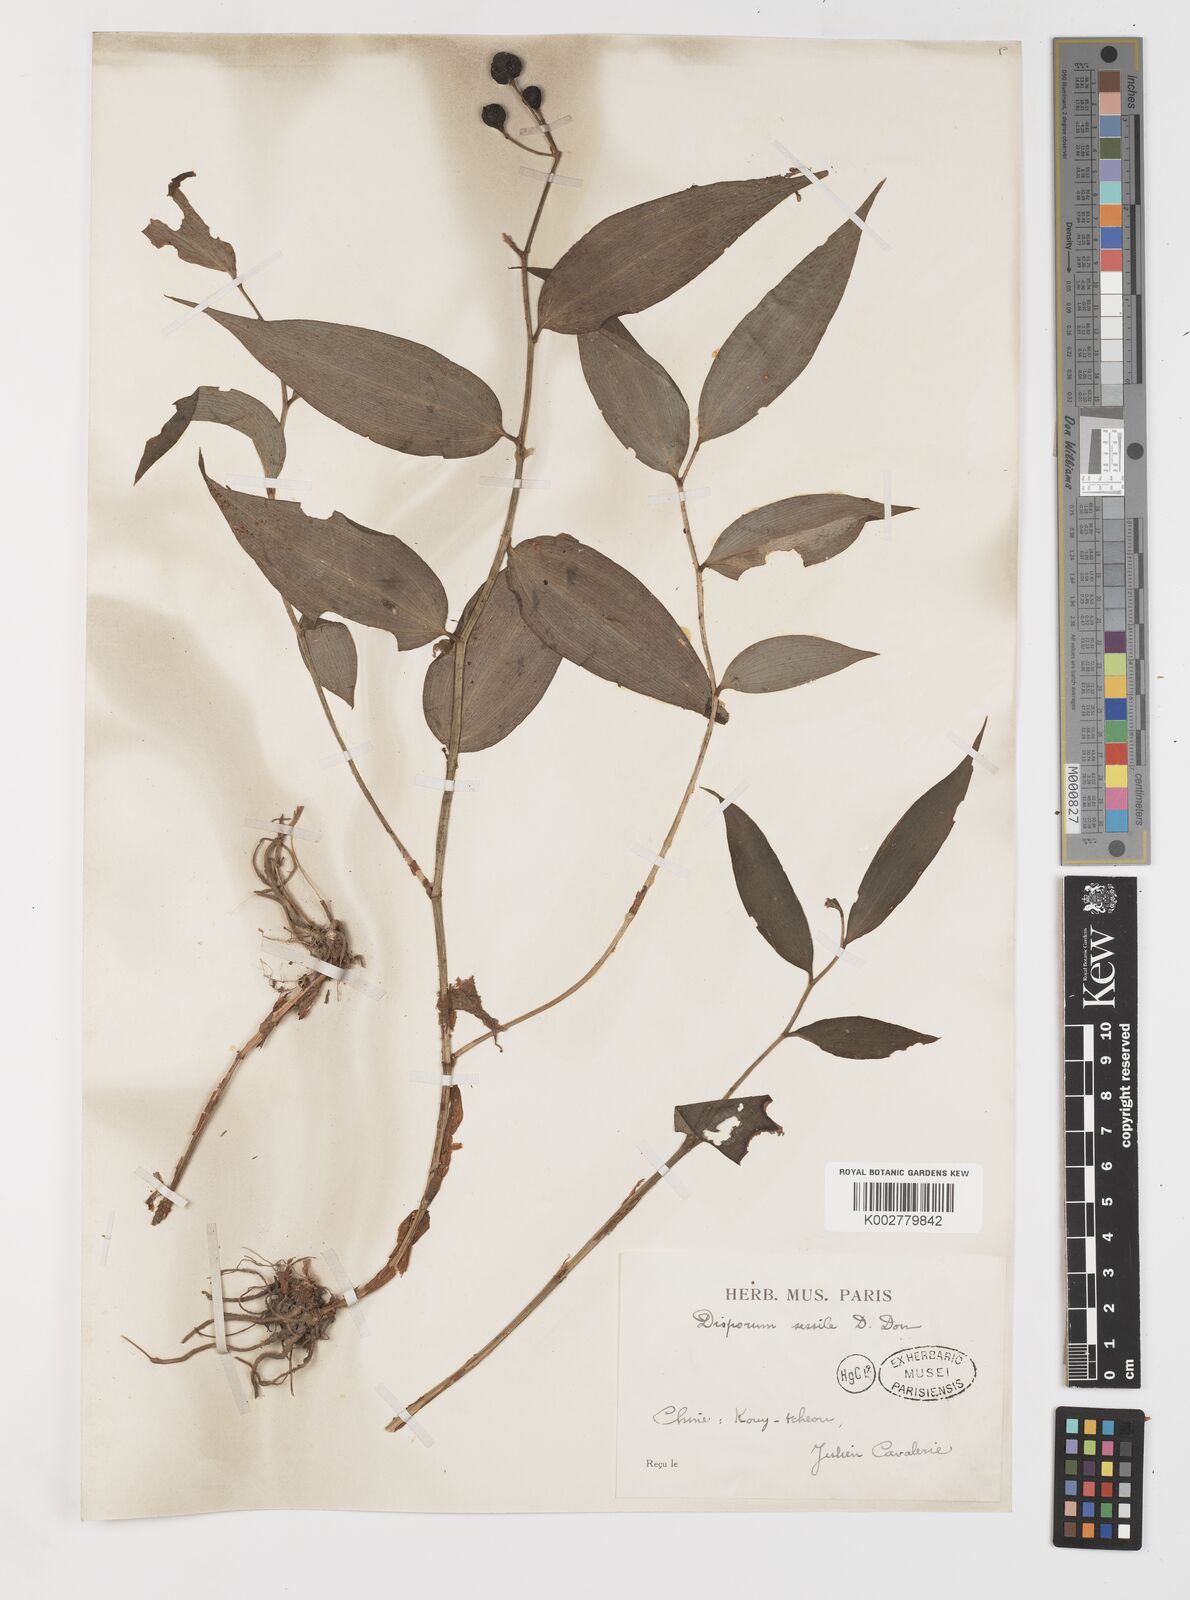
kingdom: Plantae
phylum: Tracheophyta
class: Liliopsida
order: Liliales
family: Colchicaceae
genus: Disporum
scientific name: Disporum sessile
